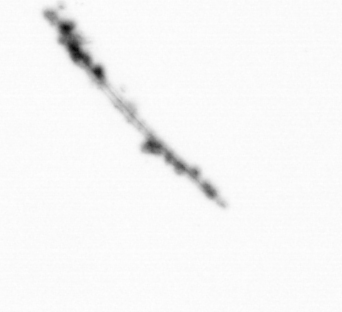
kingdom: Chromista
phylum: Ochrophyta
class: Bacillariophyceae
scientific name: Bacillariophyceae
